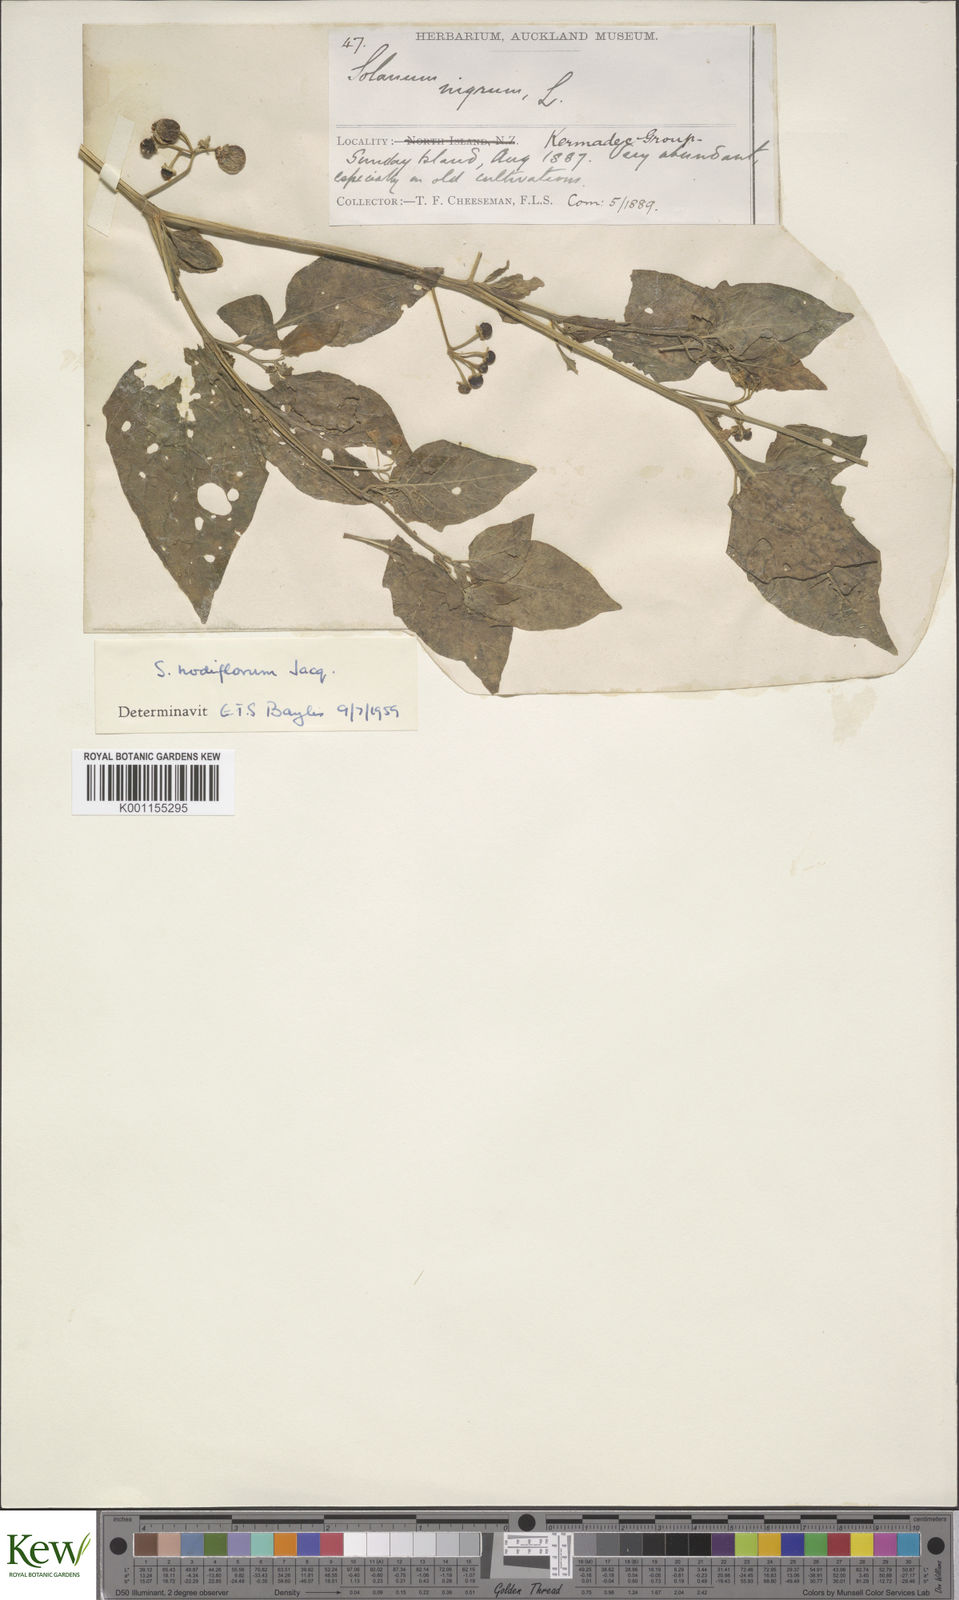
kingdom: Plantae
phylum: Tracheophyta
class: Magnoliopsida
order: Solanales
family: Solanaceae
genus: Solanum
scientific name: Solanum nigrum
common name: Black nightshade
